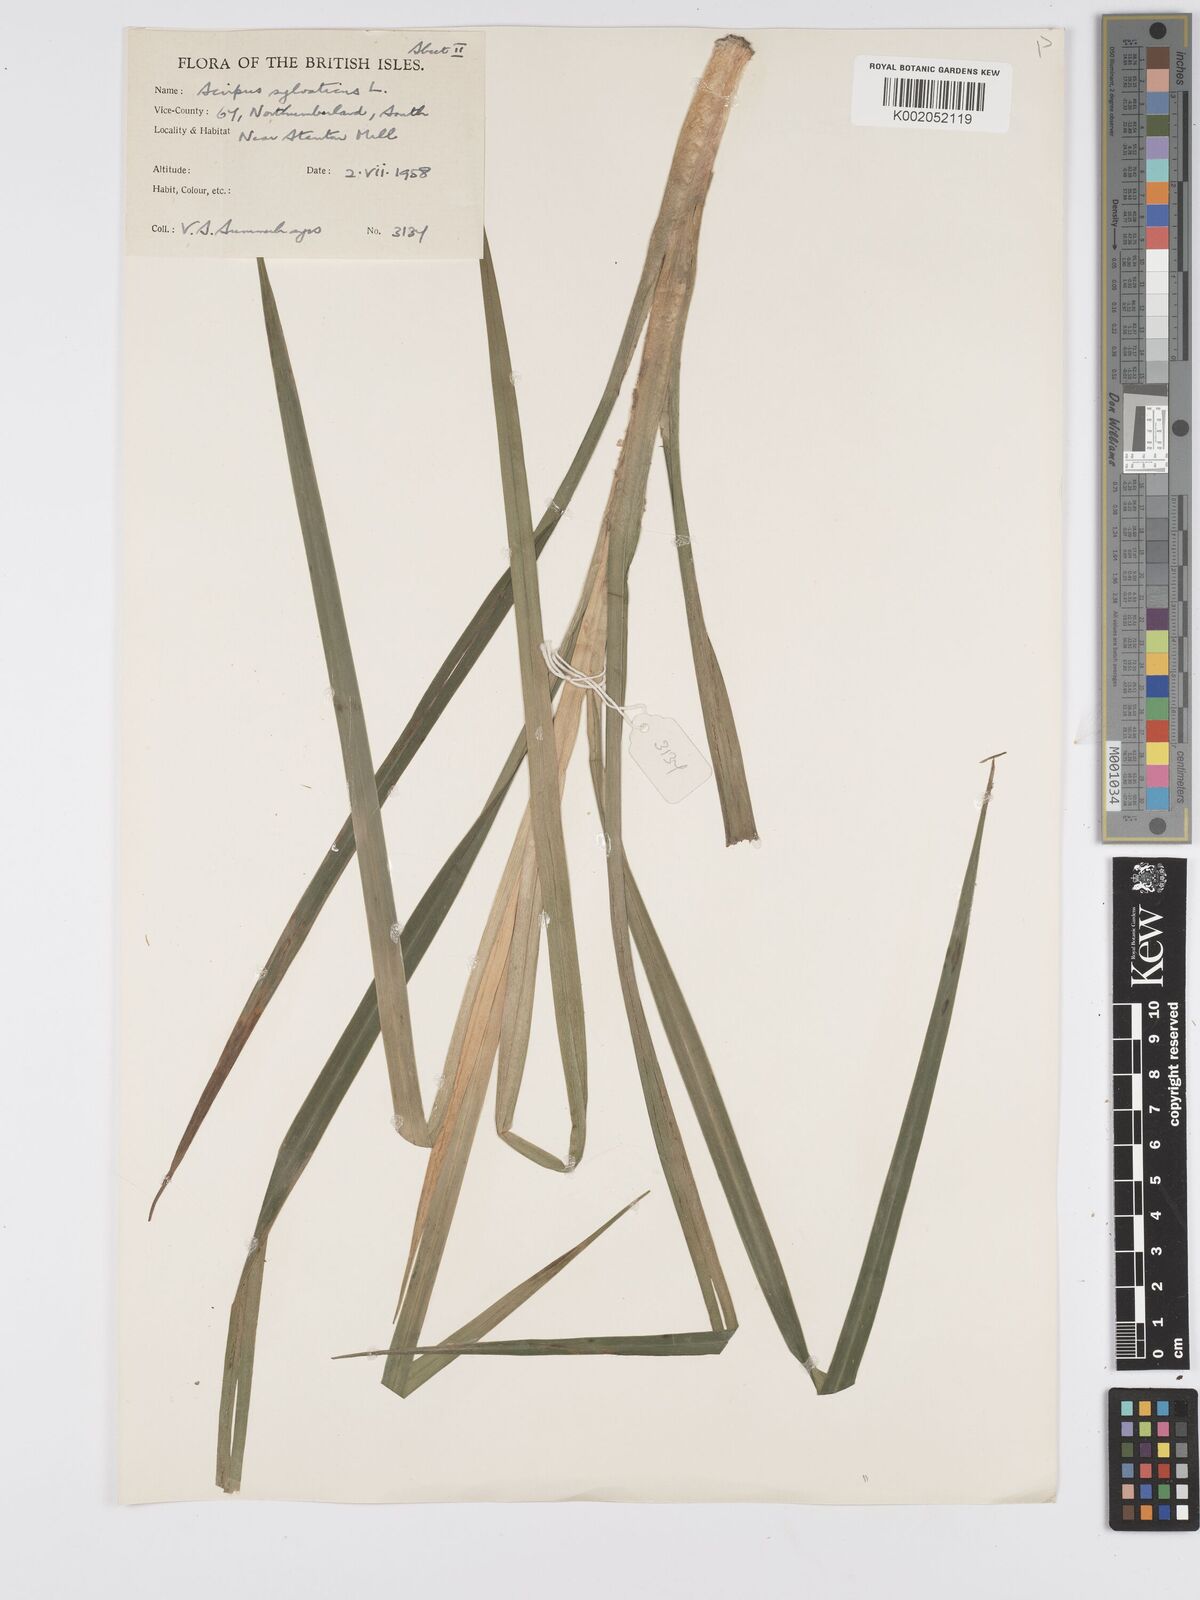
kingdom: Plantae
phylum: Tracheophyta
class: Liliopsida
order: Poales
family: Cyperaceae
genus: Scirpus
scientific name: Scirpus sylvaticus
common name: Wood club-rush
